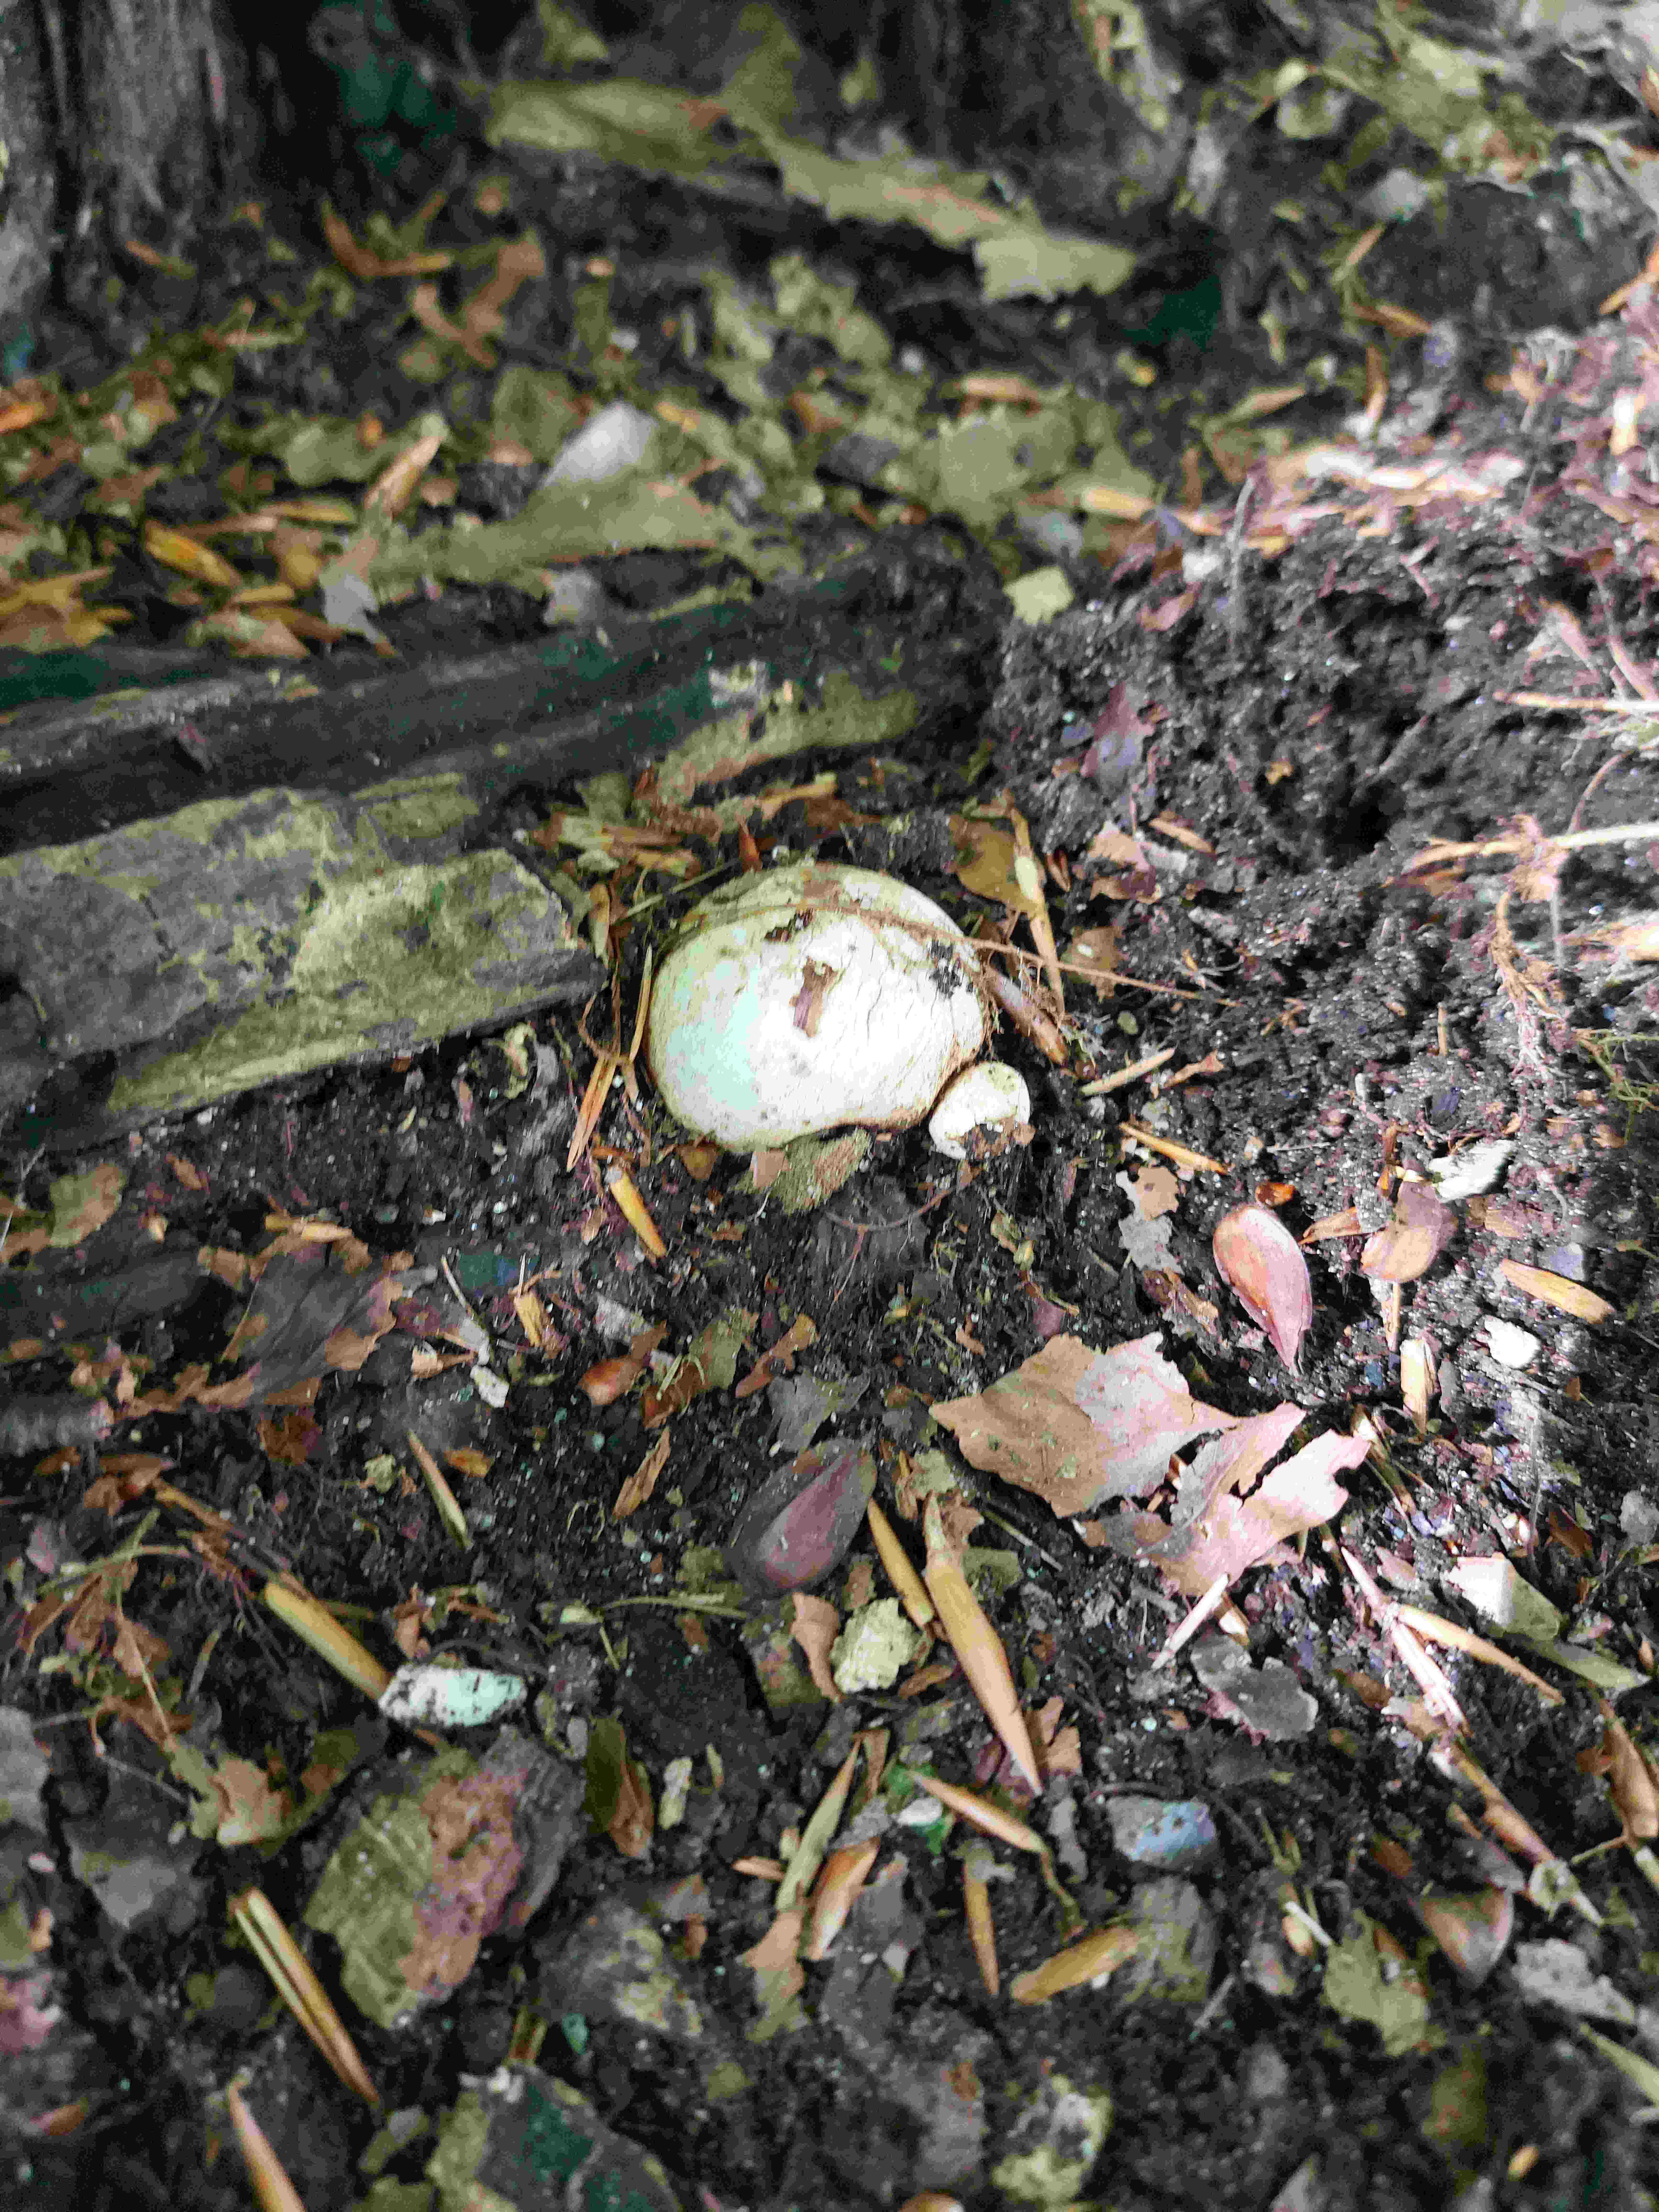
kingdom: Fungi
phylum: Basidiomycota
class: Agaricomycetes
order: Phallales
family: Phallaceae
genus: Phallus
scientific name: Phallus impudicus
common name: almindelig stinksvamp
